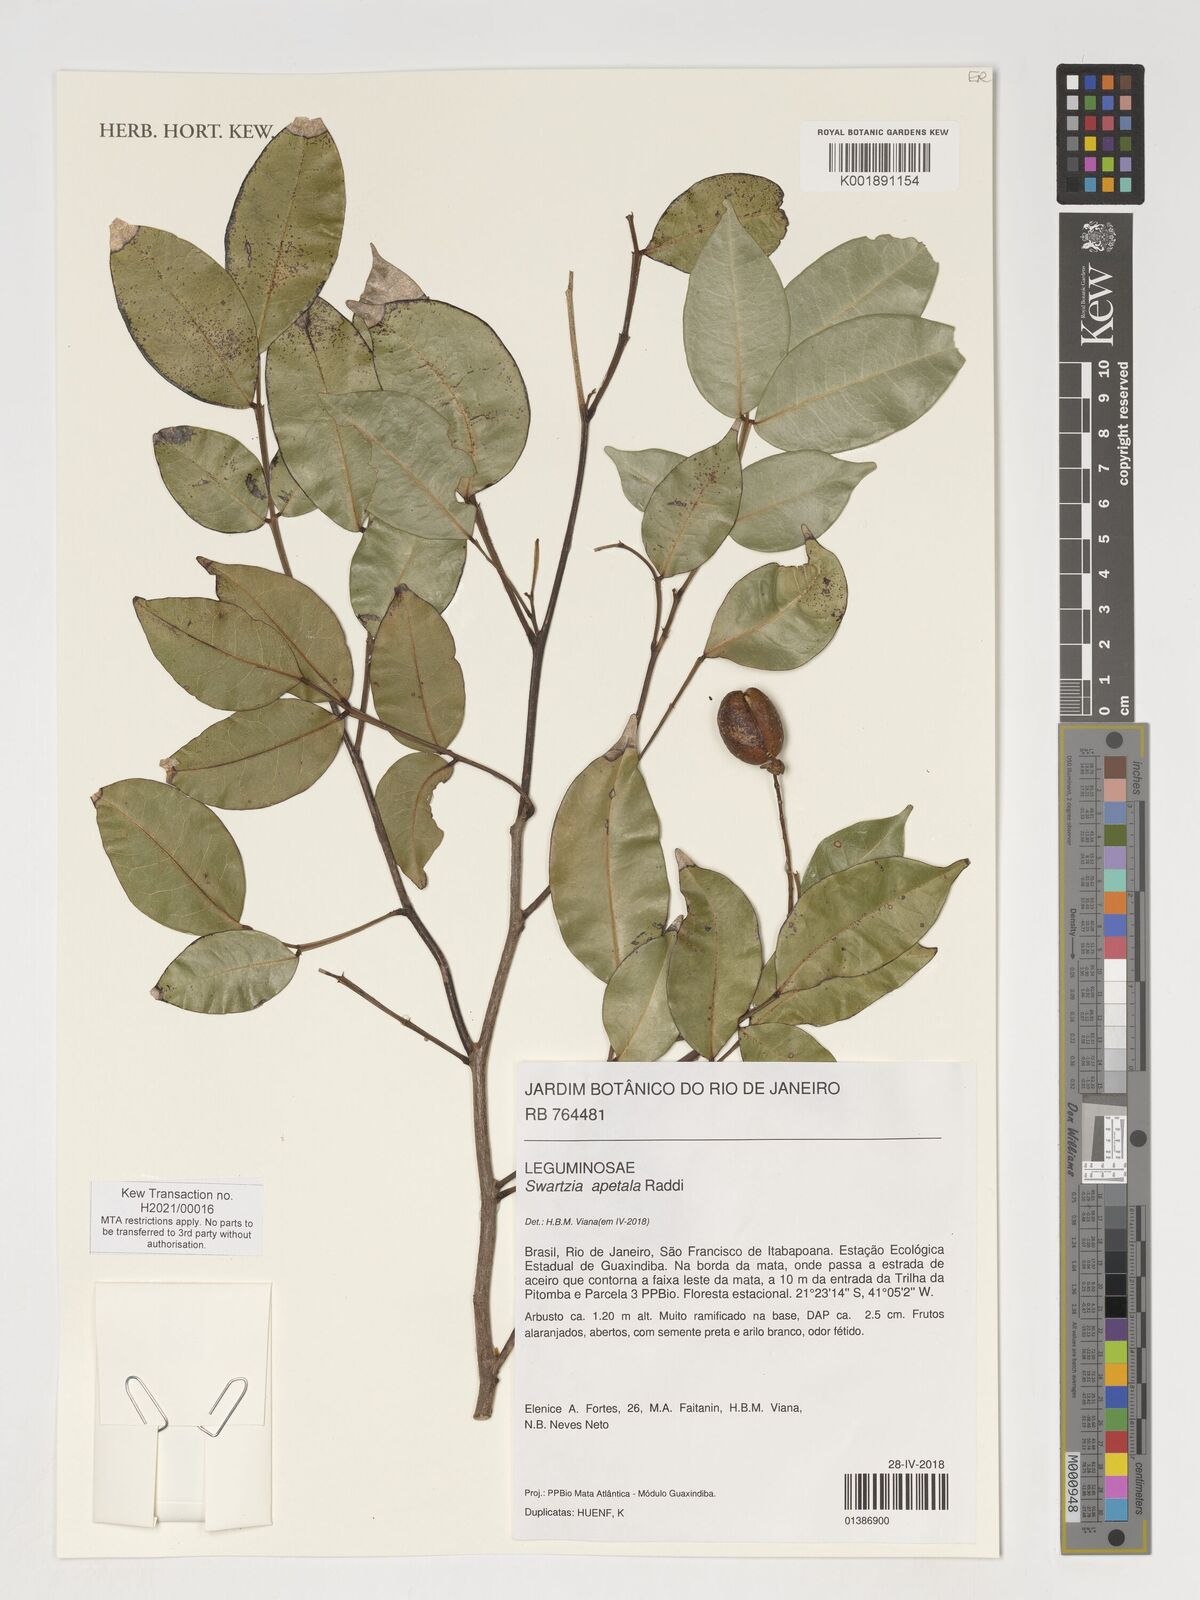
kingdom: Plantae
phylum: Tracheophyta
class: Magnoliopsida
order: Fabales
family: Fabaceae
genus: Swartzia
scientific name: Swartzia apetala
